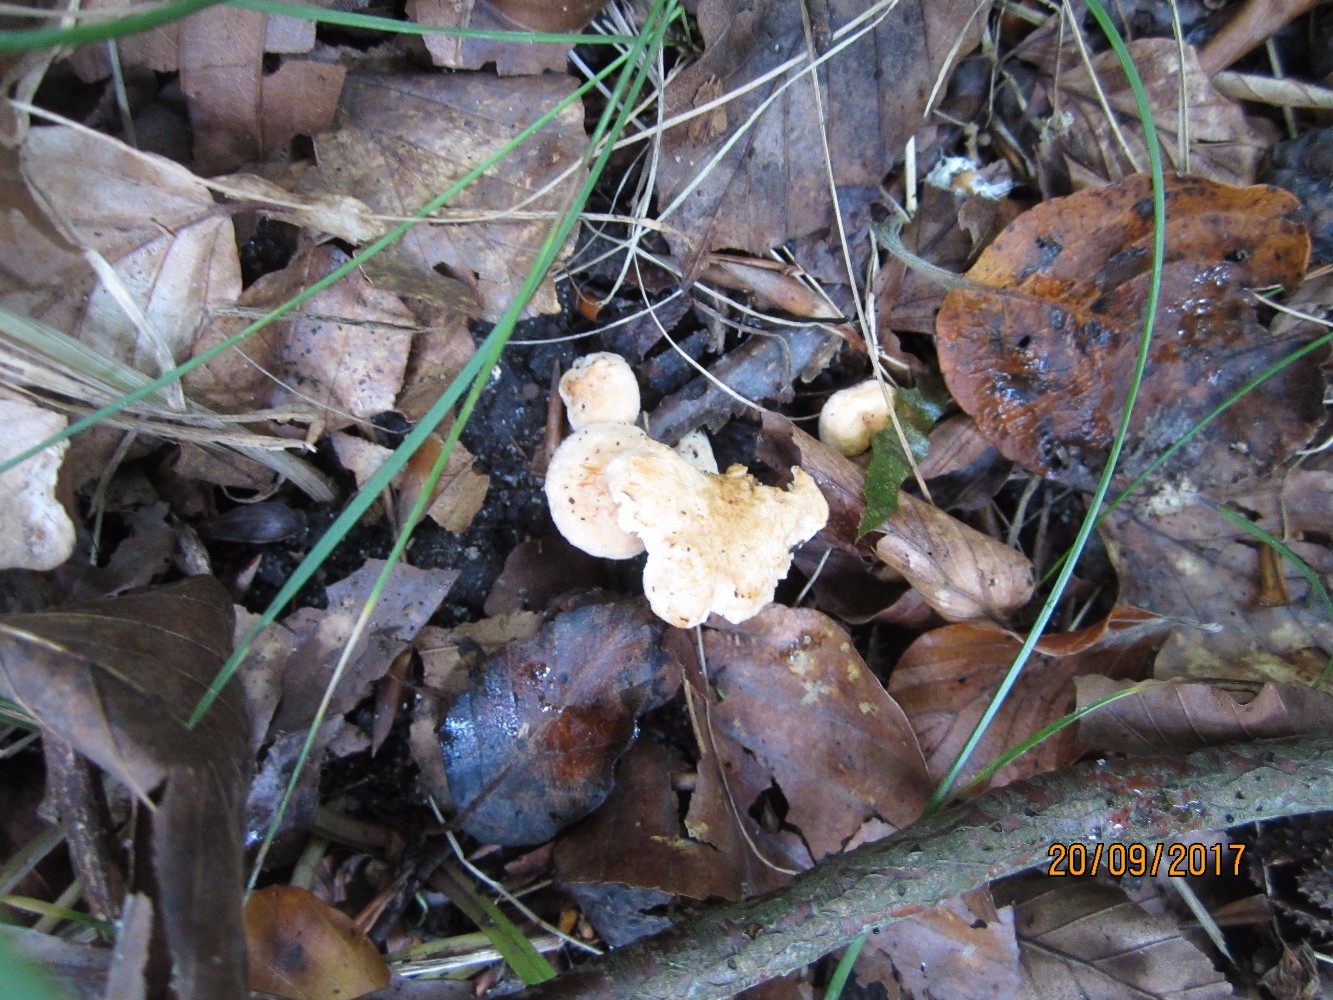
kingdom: Fungi
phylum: Basidiomycota
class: Agaricomycetes
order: Cantharellales
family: Hydnaceae
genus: Hydnum
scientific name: Hydnum rufescens
